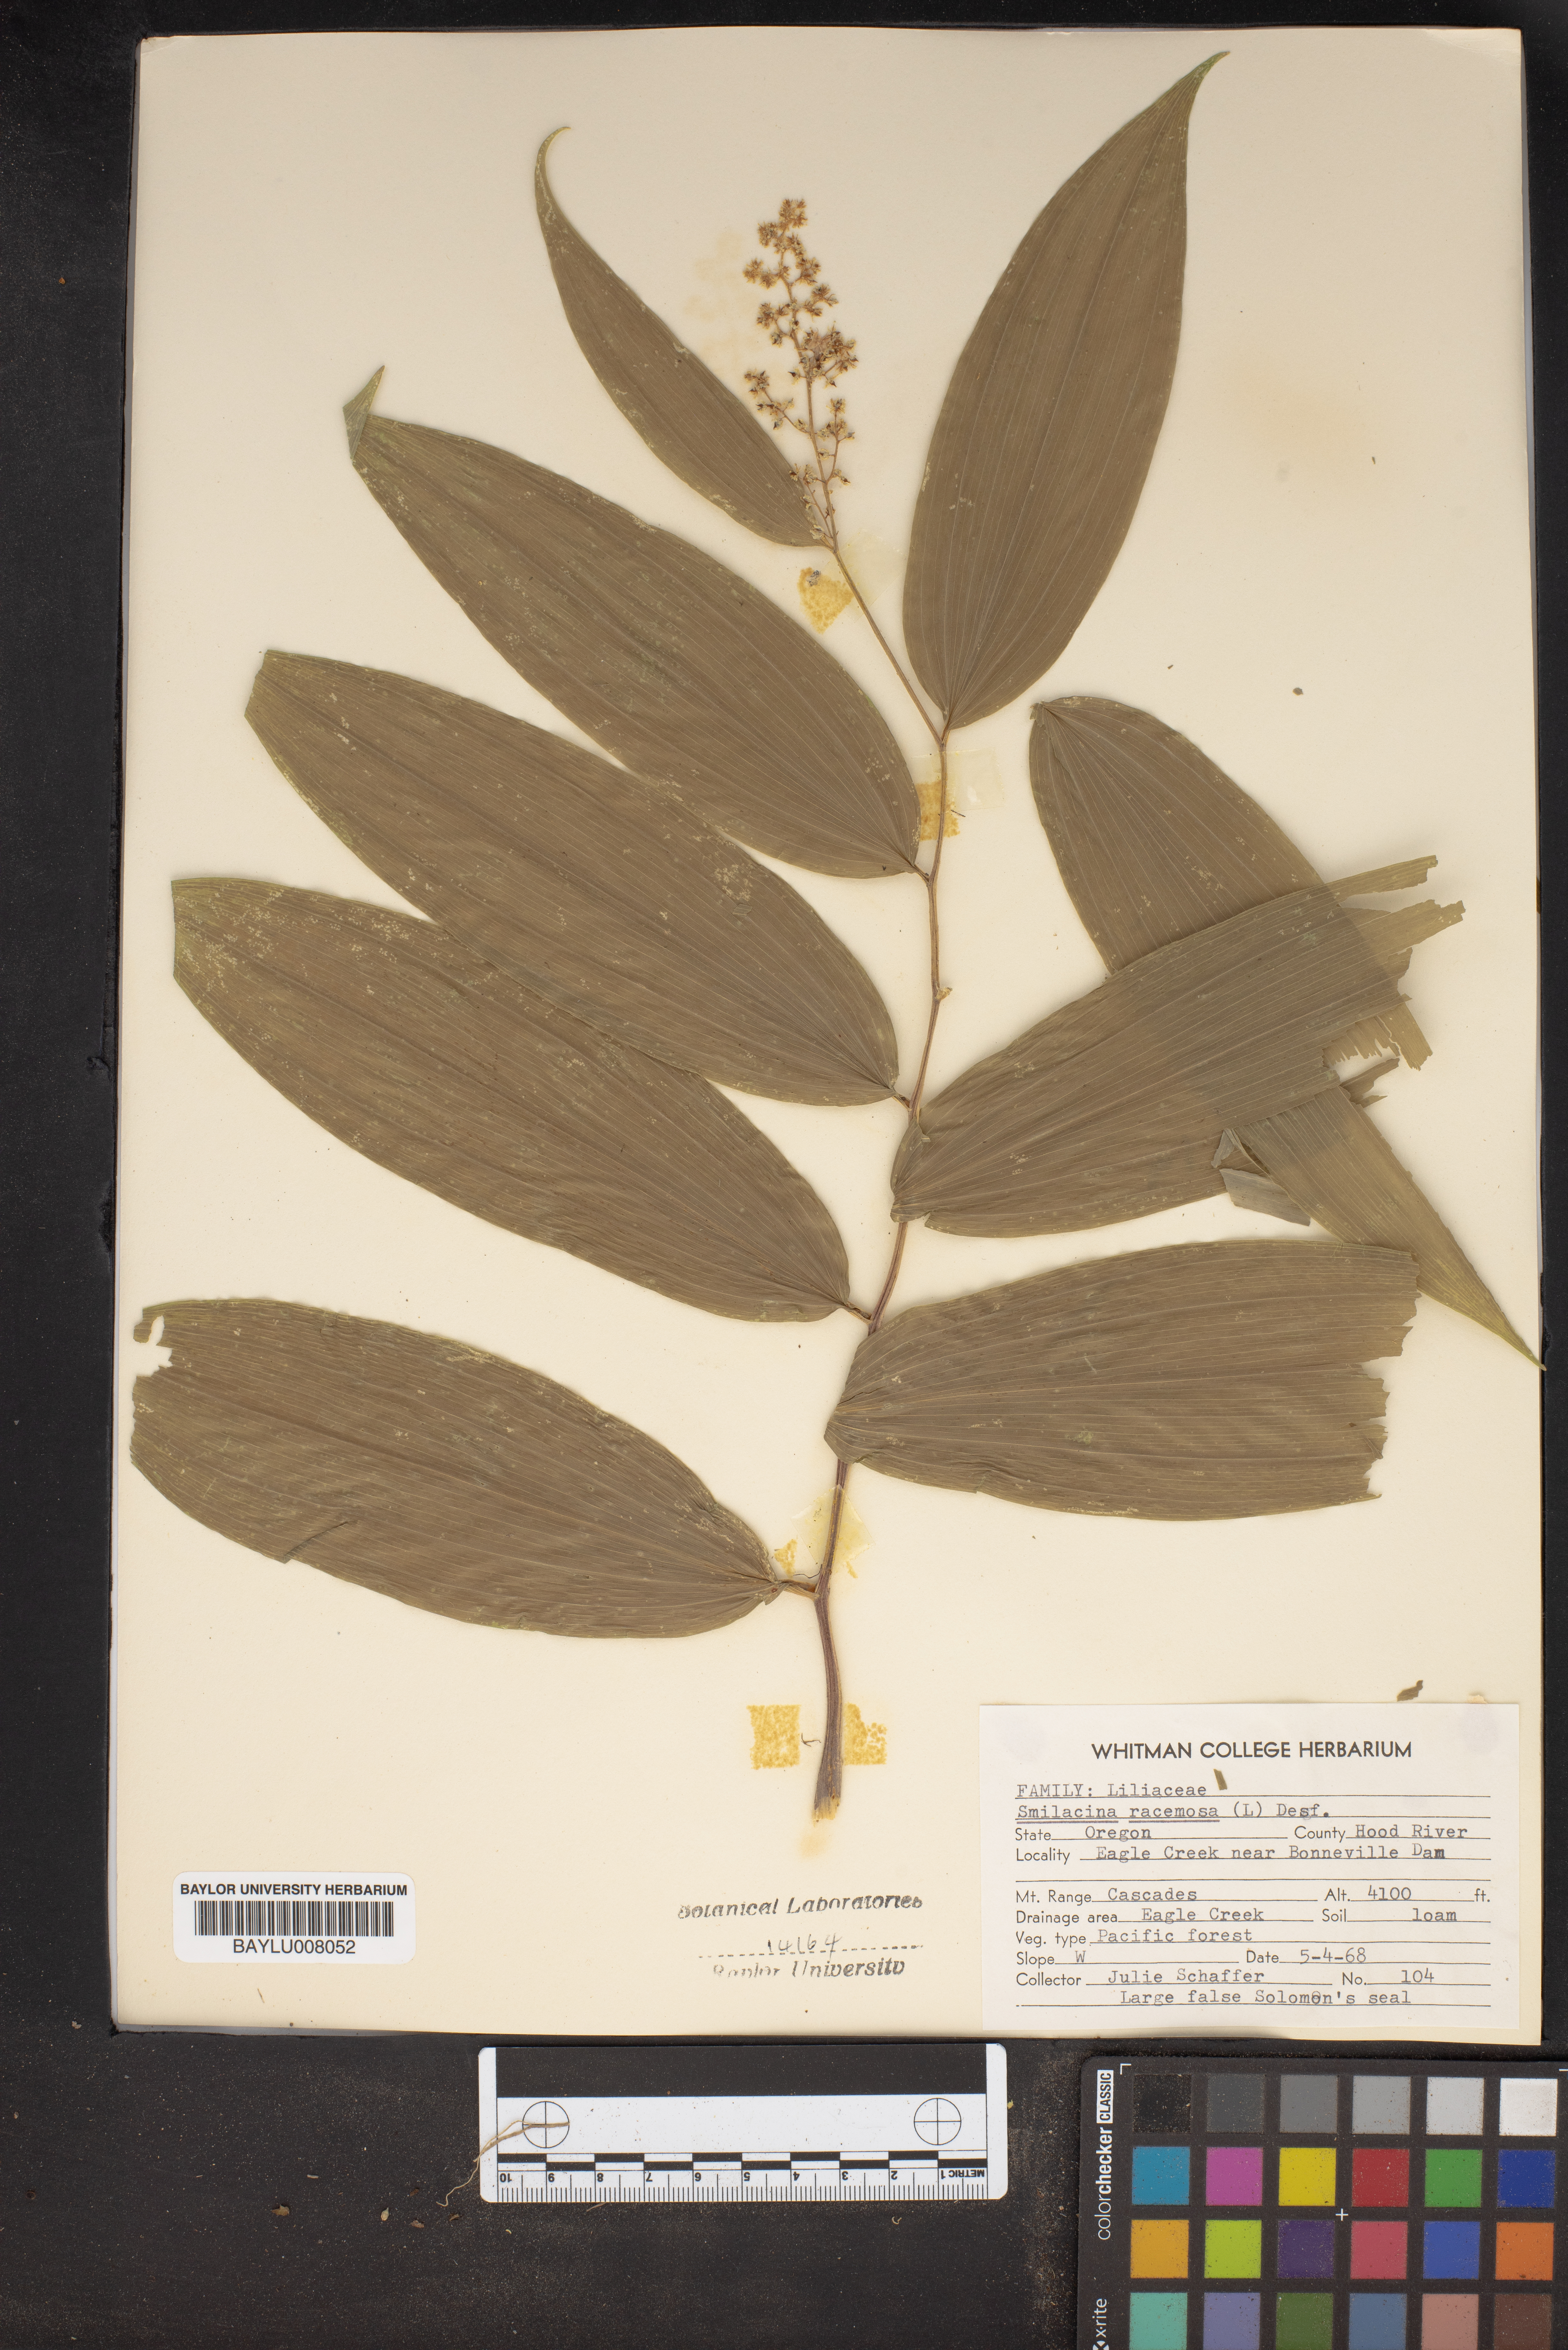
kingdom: Plantae
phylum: Tracheophyta
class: Liliopsida
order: Asparagales
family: Asparagaceae
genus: Maianthemum
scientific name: Maianthemum racemosum
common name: False spikenard
